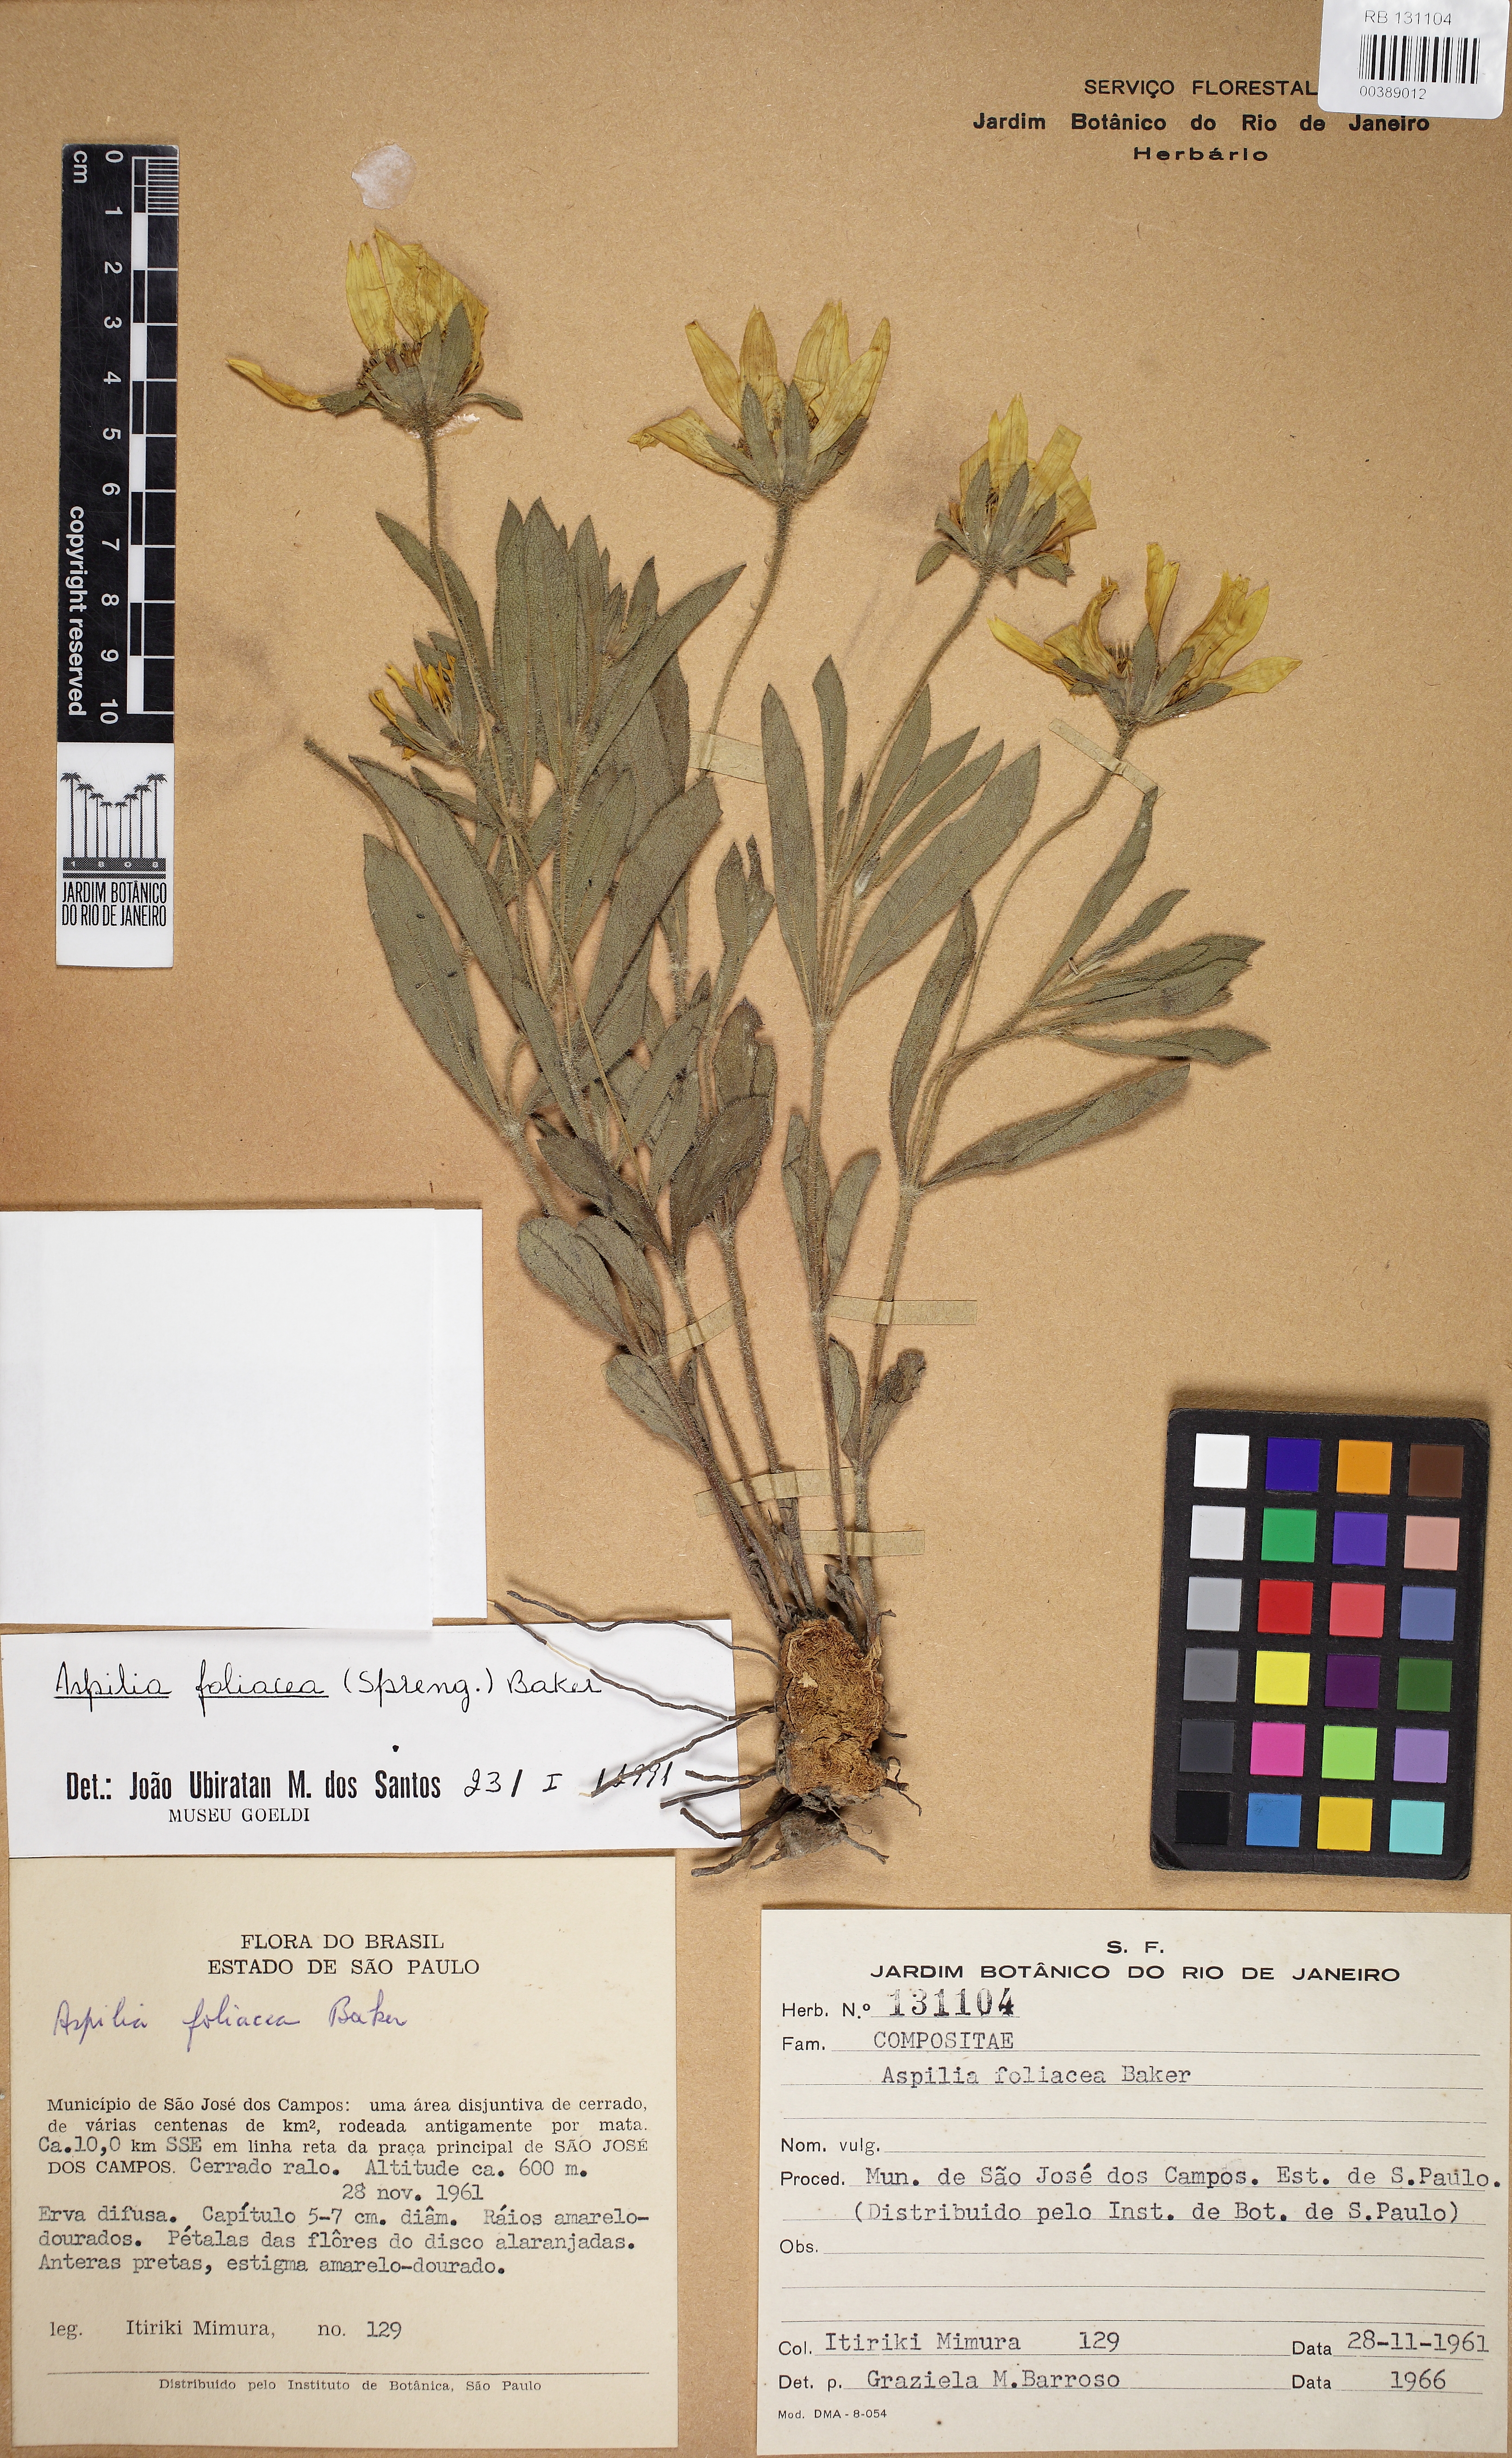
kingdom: Plantae
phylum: Tracheophyta
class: Magnoliopsida
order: Asterales
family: Asteraceae
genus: Wedelia
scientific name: Wedelia foliacea
